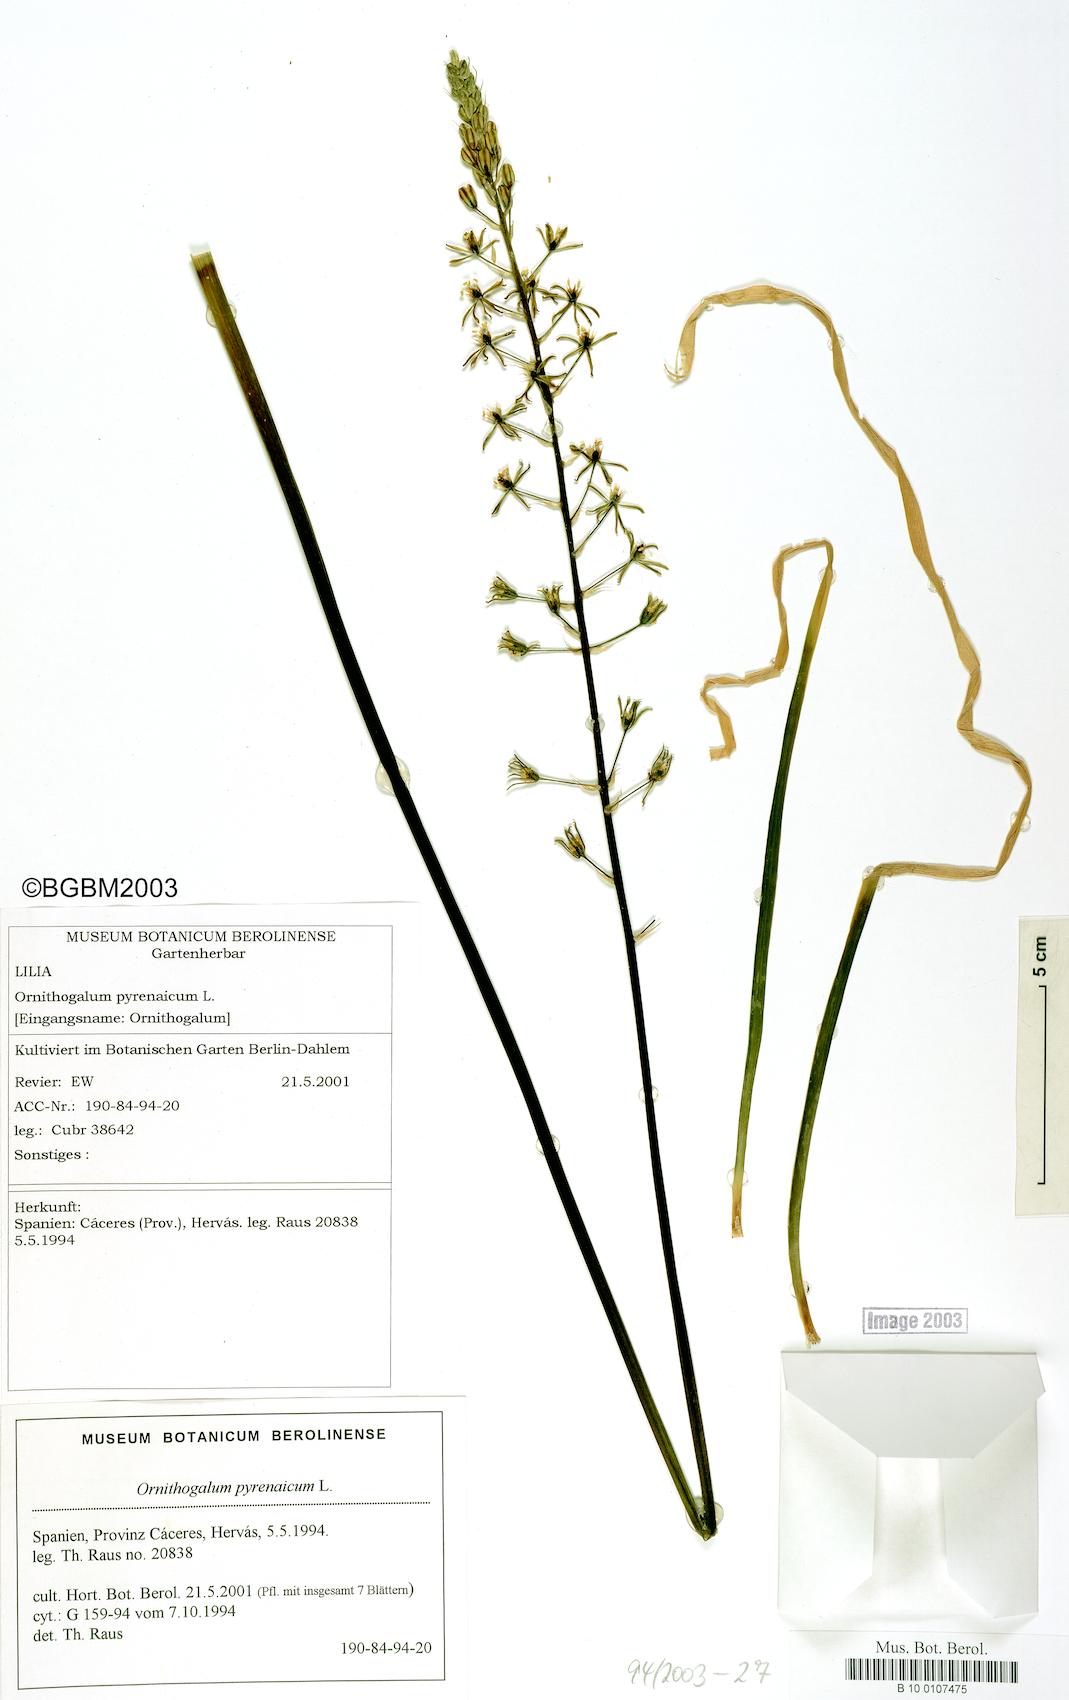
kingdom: Plantae
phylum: Tracheophyta
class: Liliopsida
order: Asparagales
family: Asparagaceae
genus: Ornithogalum
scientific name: Ornithogalum pyrenaicum
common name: Spiked star-of-bethlehem
